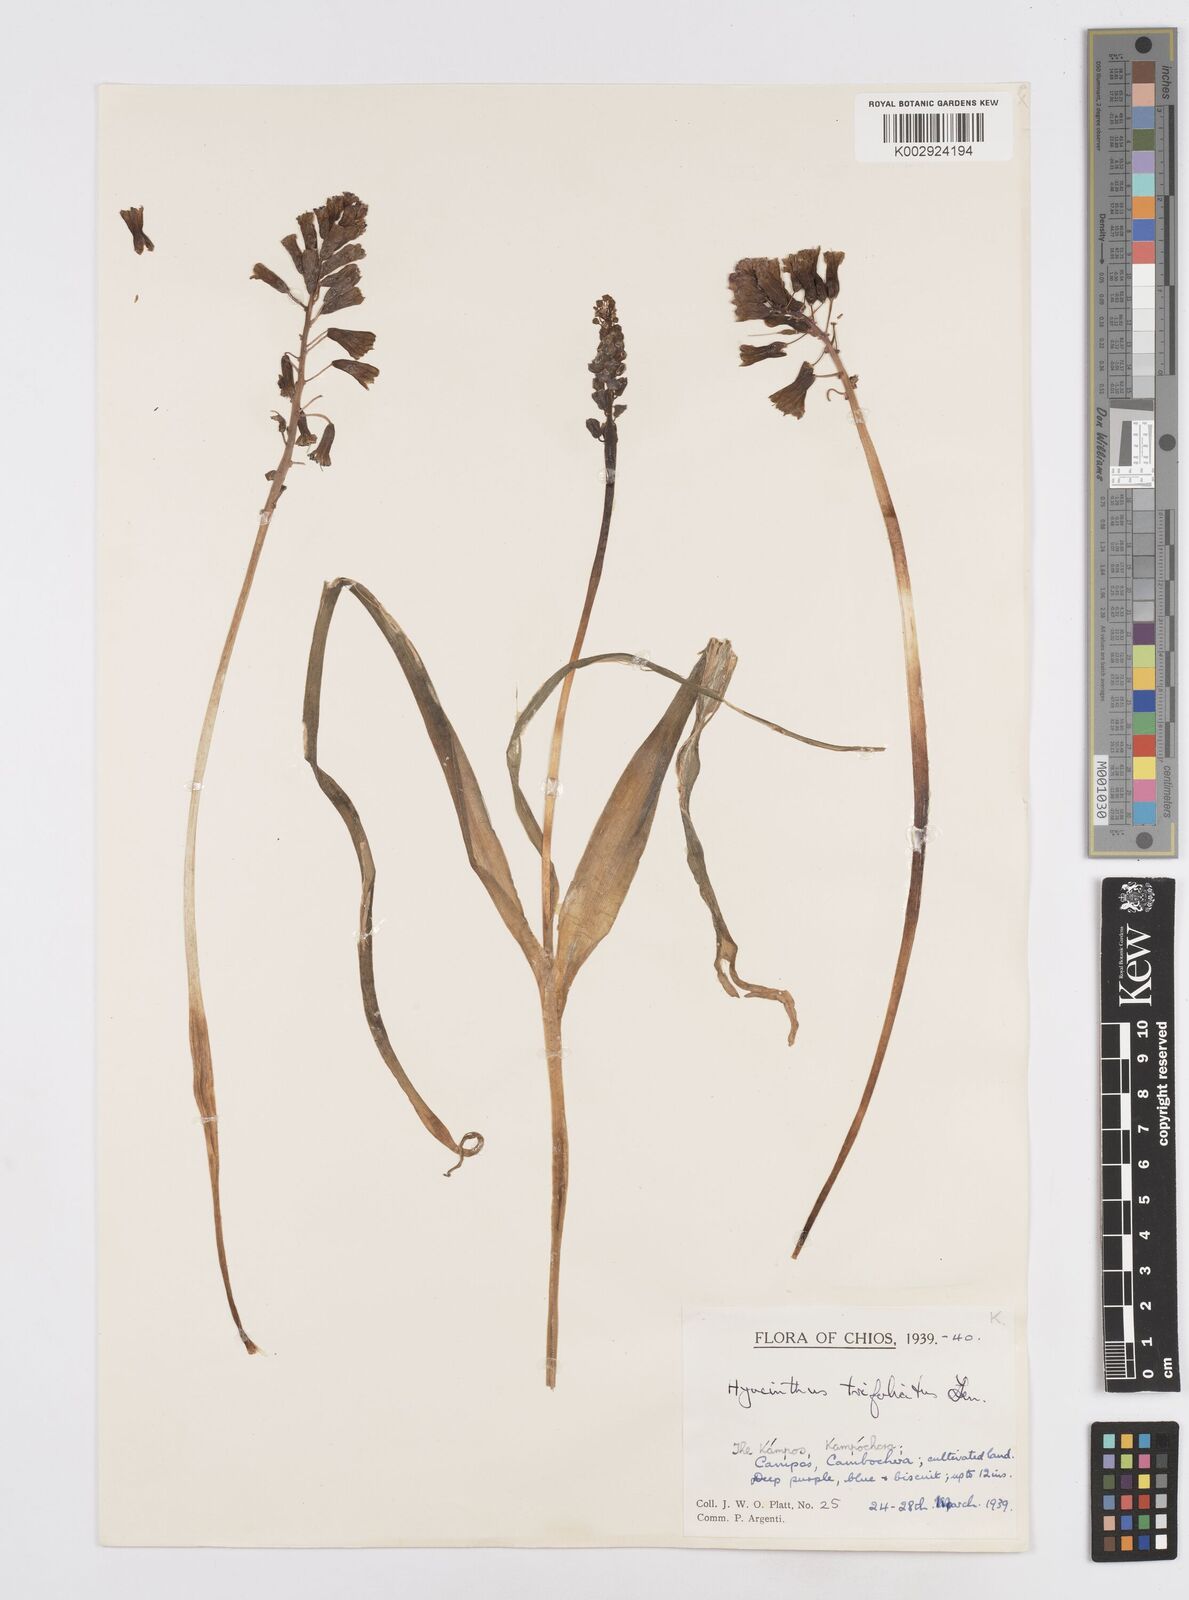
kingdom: Plantae
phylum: Tracheophyta
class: Liliopsida
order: Asparagales
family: Asparagaceae
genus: Bellevalia
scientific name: Bellevalia trifoliata
